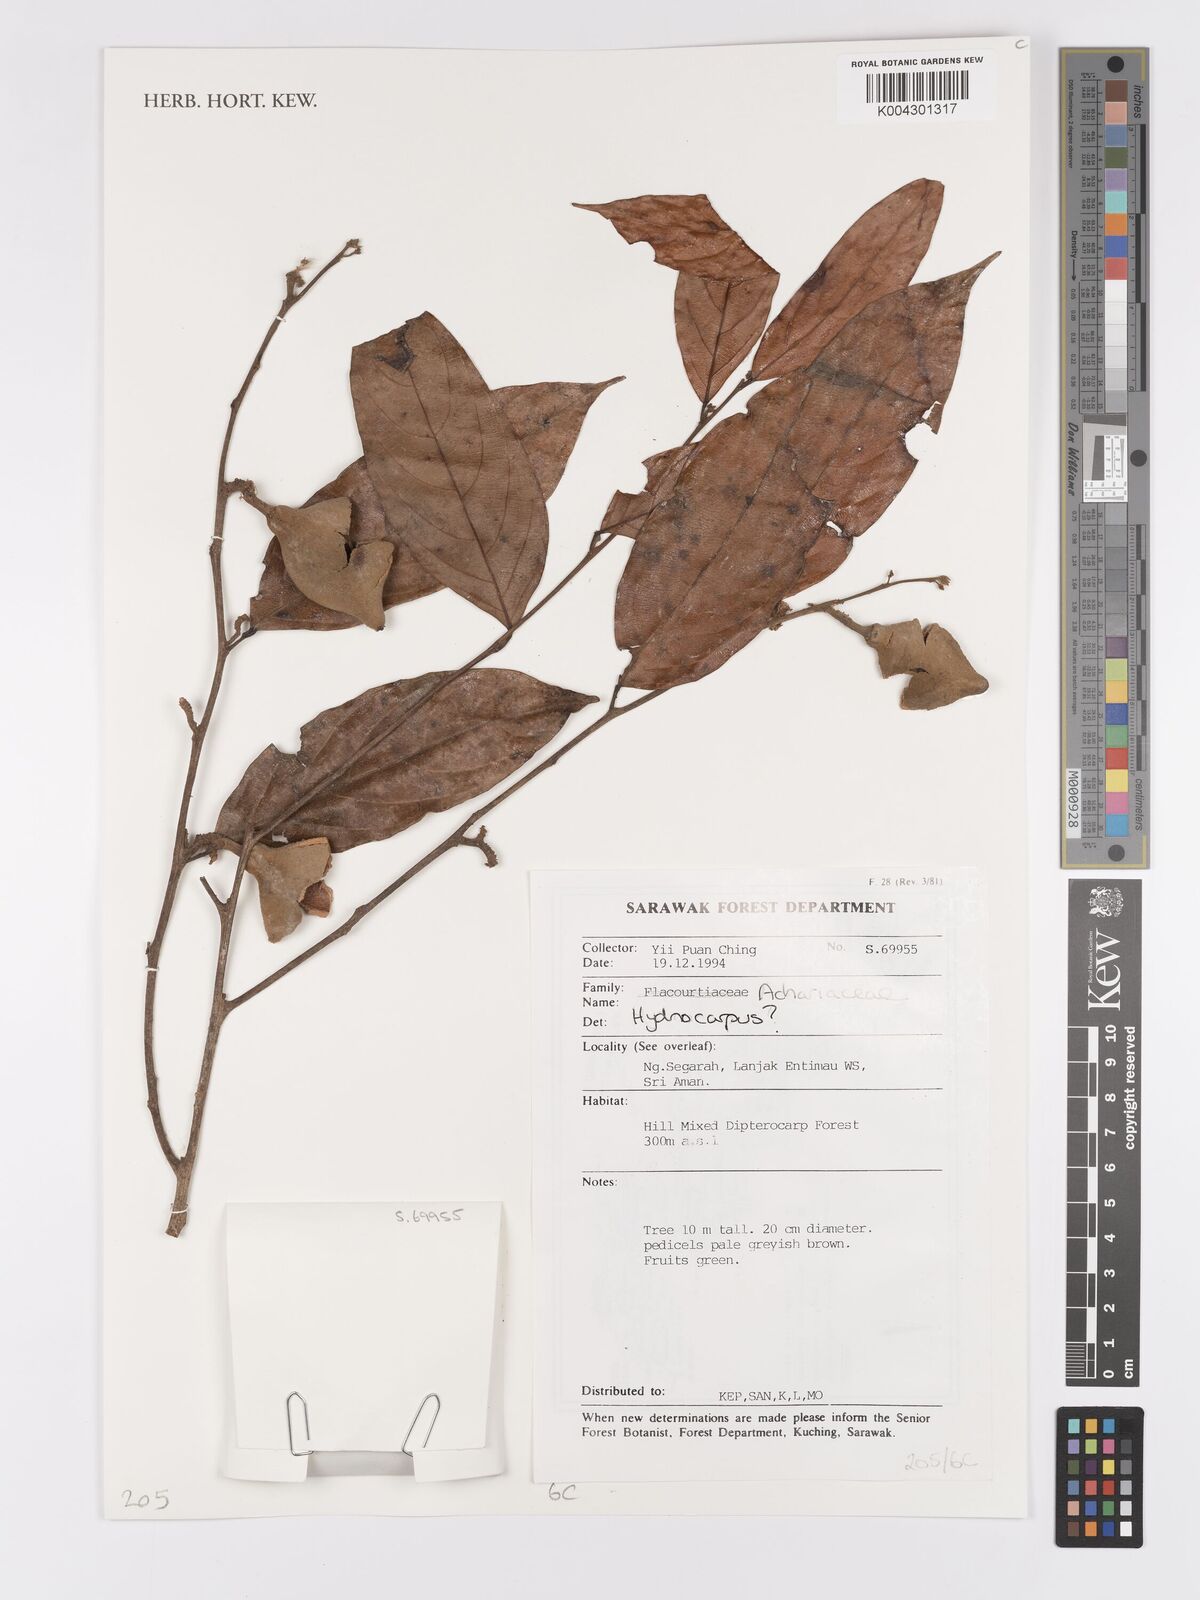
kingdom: Plantae
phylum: Tracheophyta
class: Magnoliopsida
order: Malpighiales
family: Achariaceae
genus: Hydnocarpus
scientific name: Hydnocarpus
